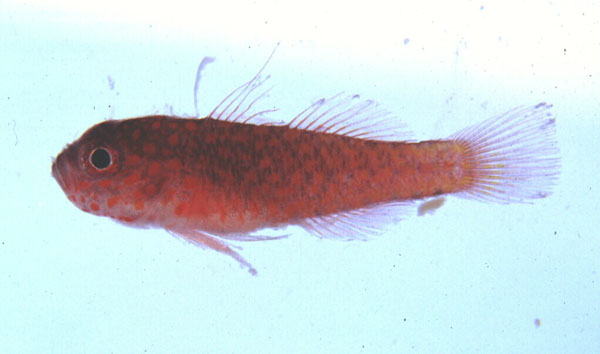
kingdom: Animalia
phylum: Chordata
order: Perciformes
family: Gobiidae
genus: Trimma
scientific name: Trimma flammeum
